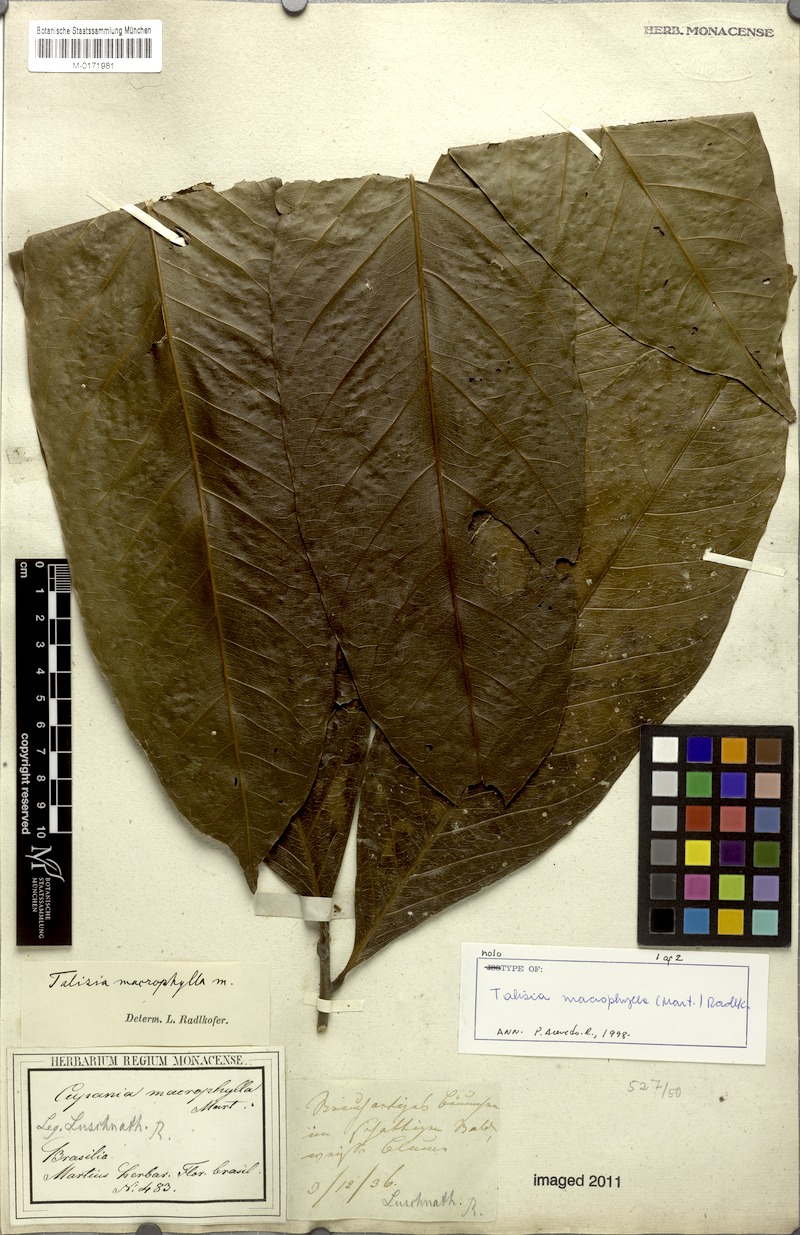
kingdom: Plantae
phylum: Tracheophyta
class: Magnoliopsida
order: Sapindales
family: Sapindaceae
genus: Talisia
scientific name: Talisia macrophylla
